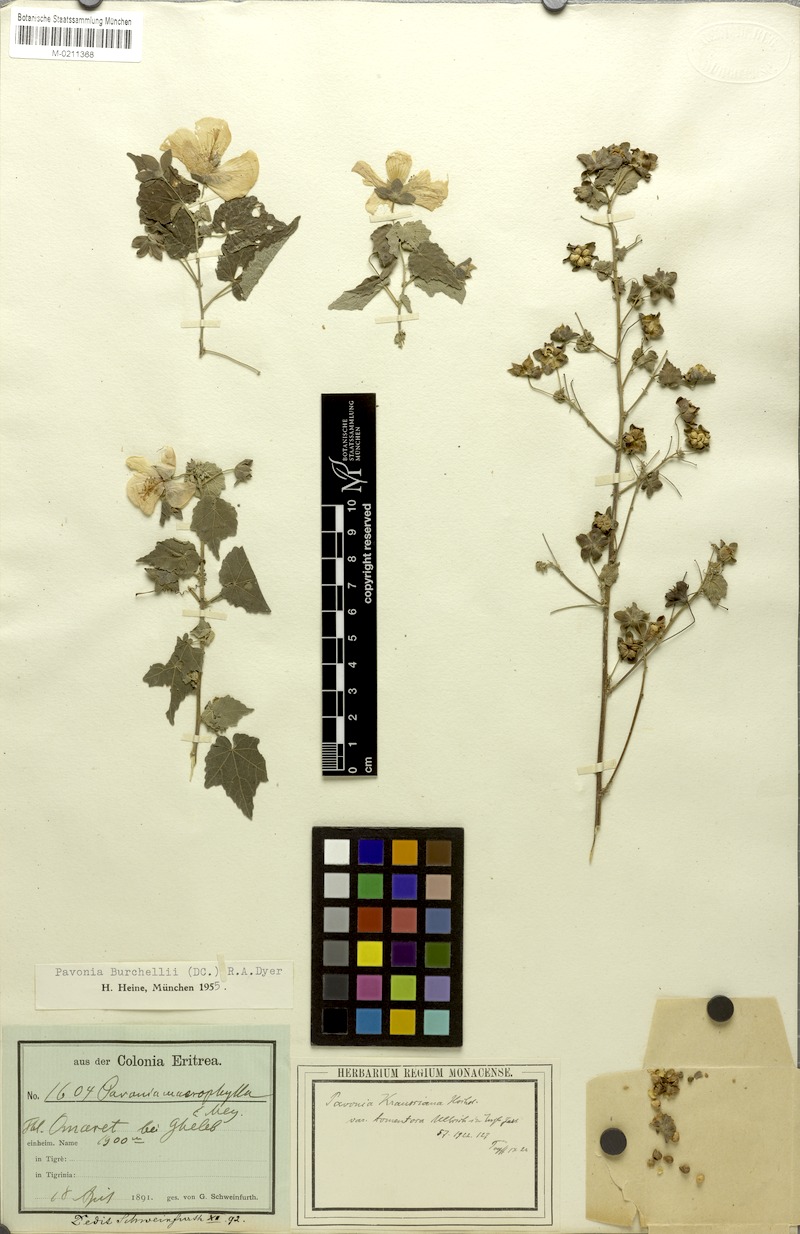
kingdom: Plantae
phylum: Tracheophyta
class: Magnoliopsida
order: Malvales
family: Malvaceae
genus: Pavonia
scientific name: Pavonia burchellii
